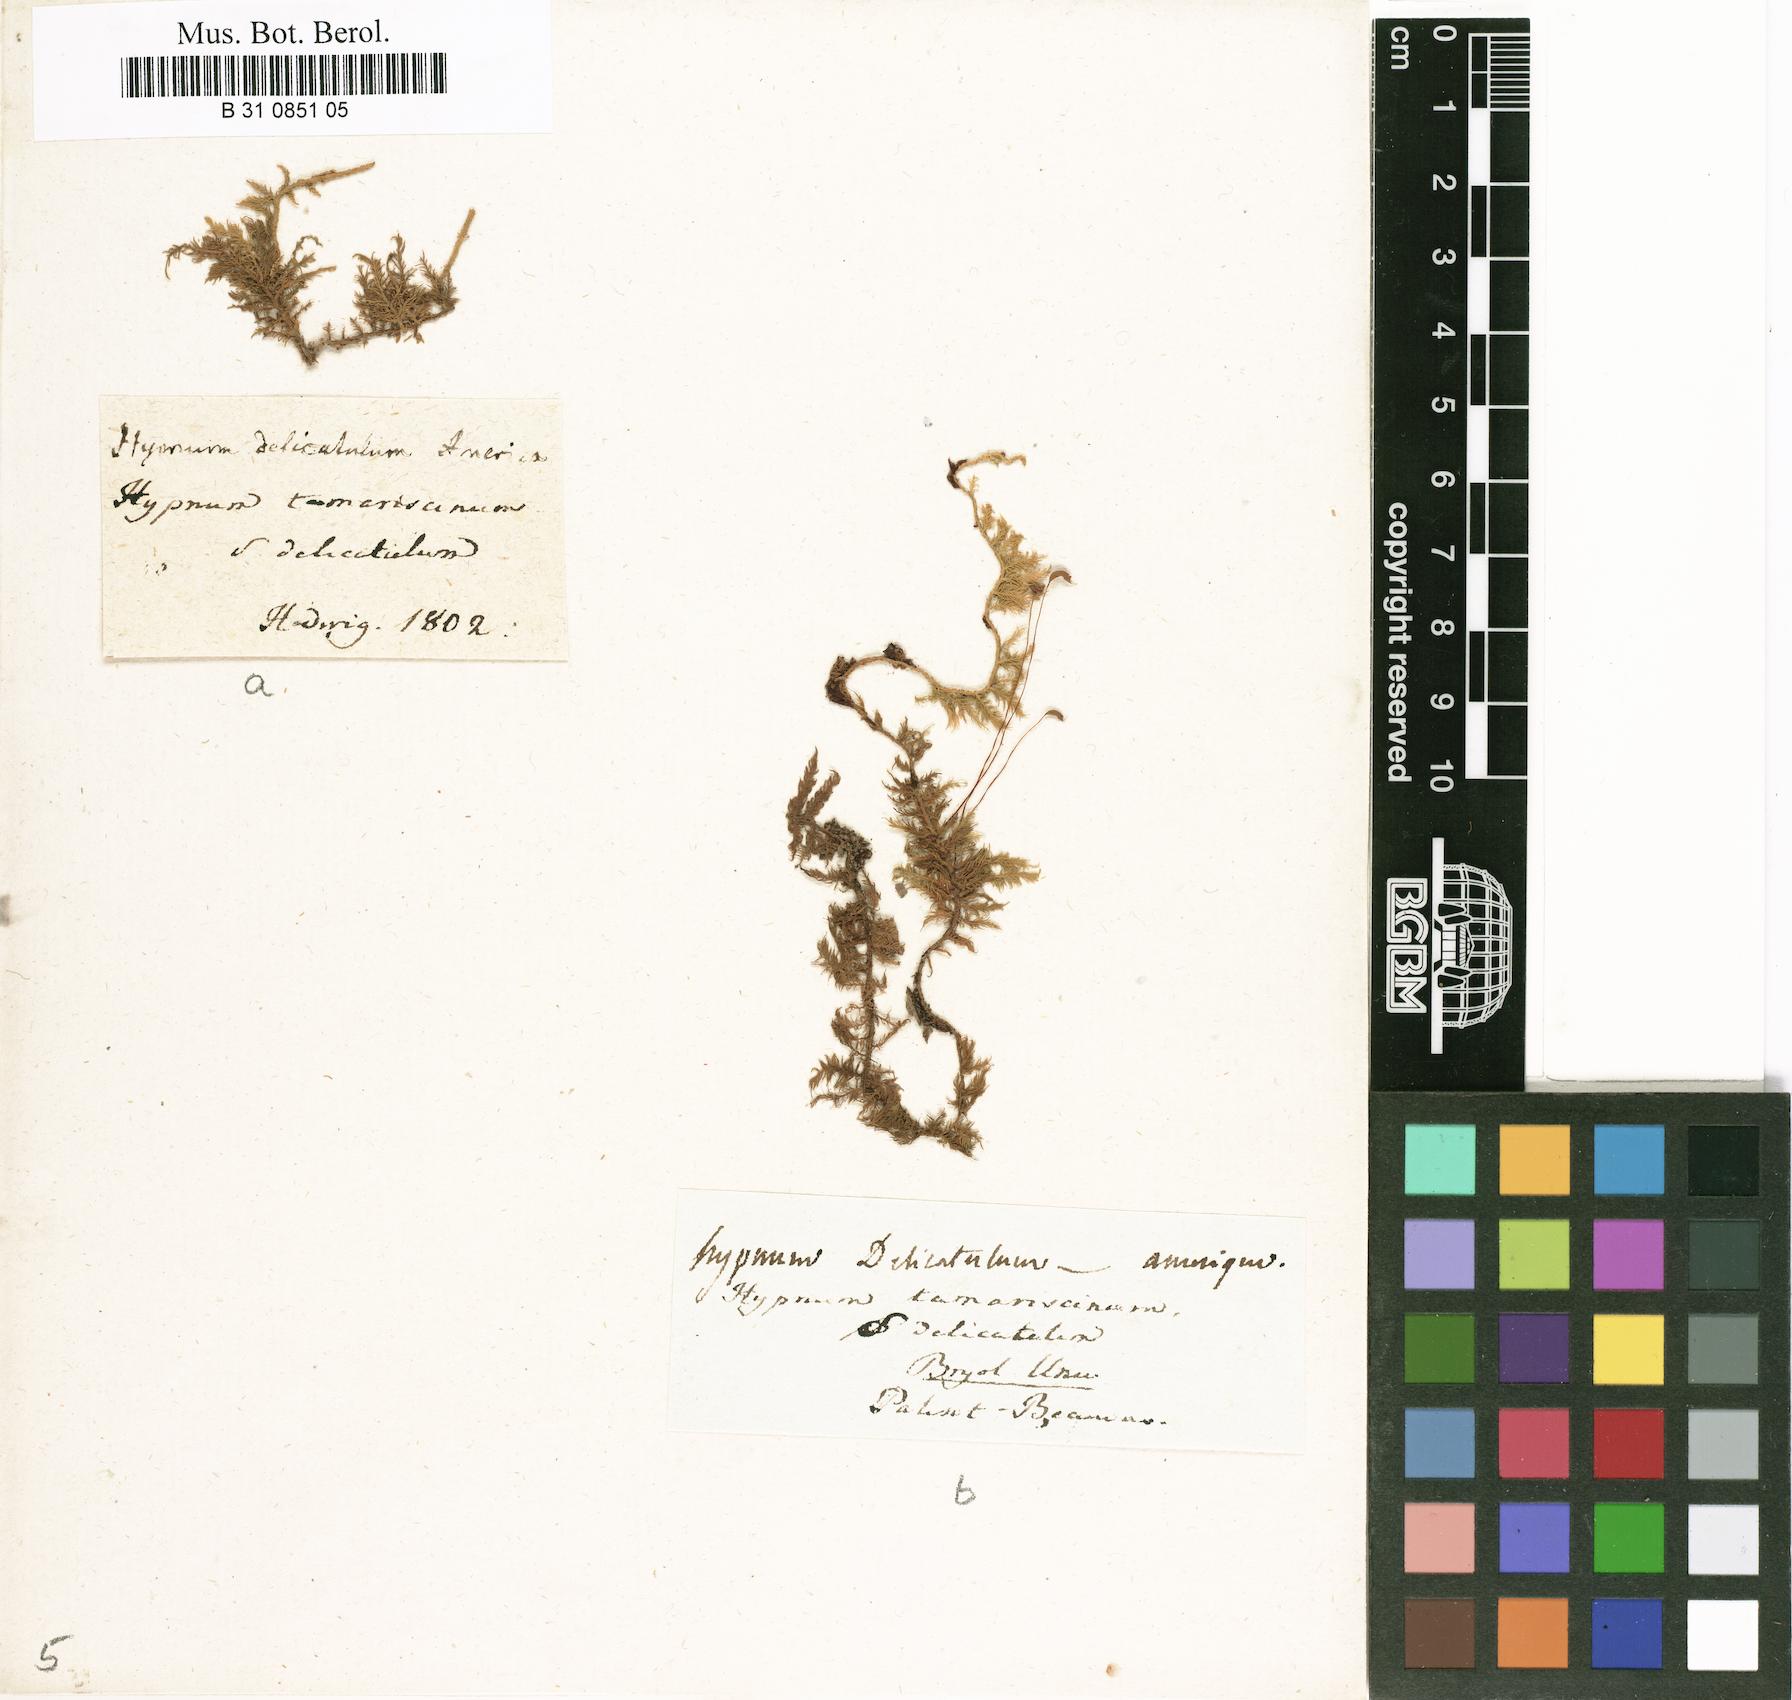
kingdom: Plantae
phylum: Bryophyta
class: Bryopsida
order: Hypnales
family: Thuidiaceae
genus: Thuidium
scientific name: Thuidium tamariscinum
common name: Common tamarisk-moss
